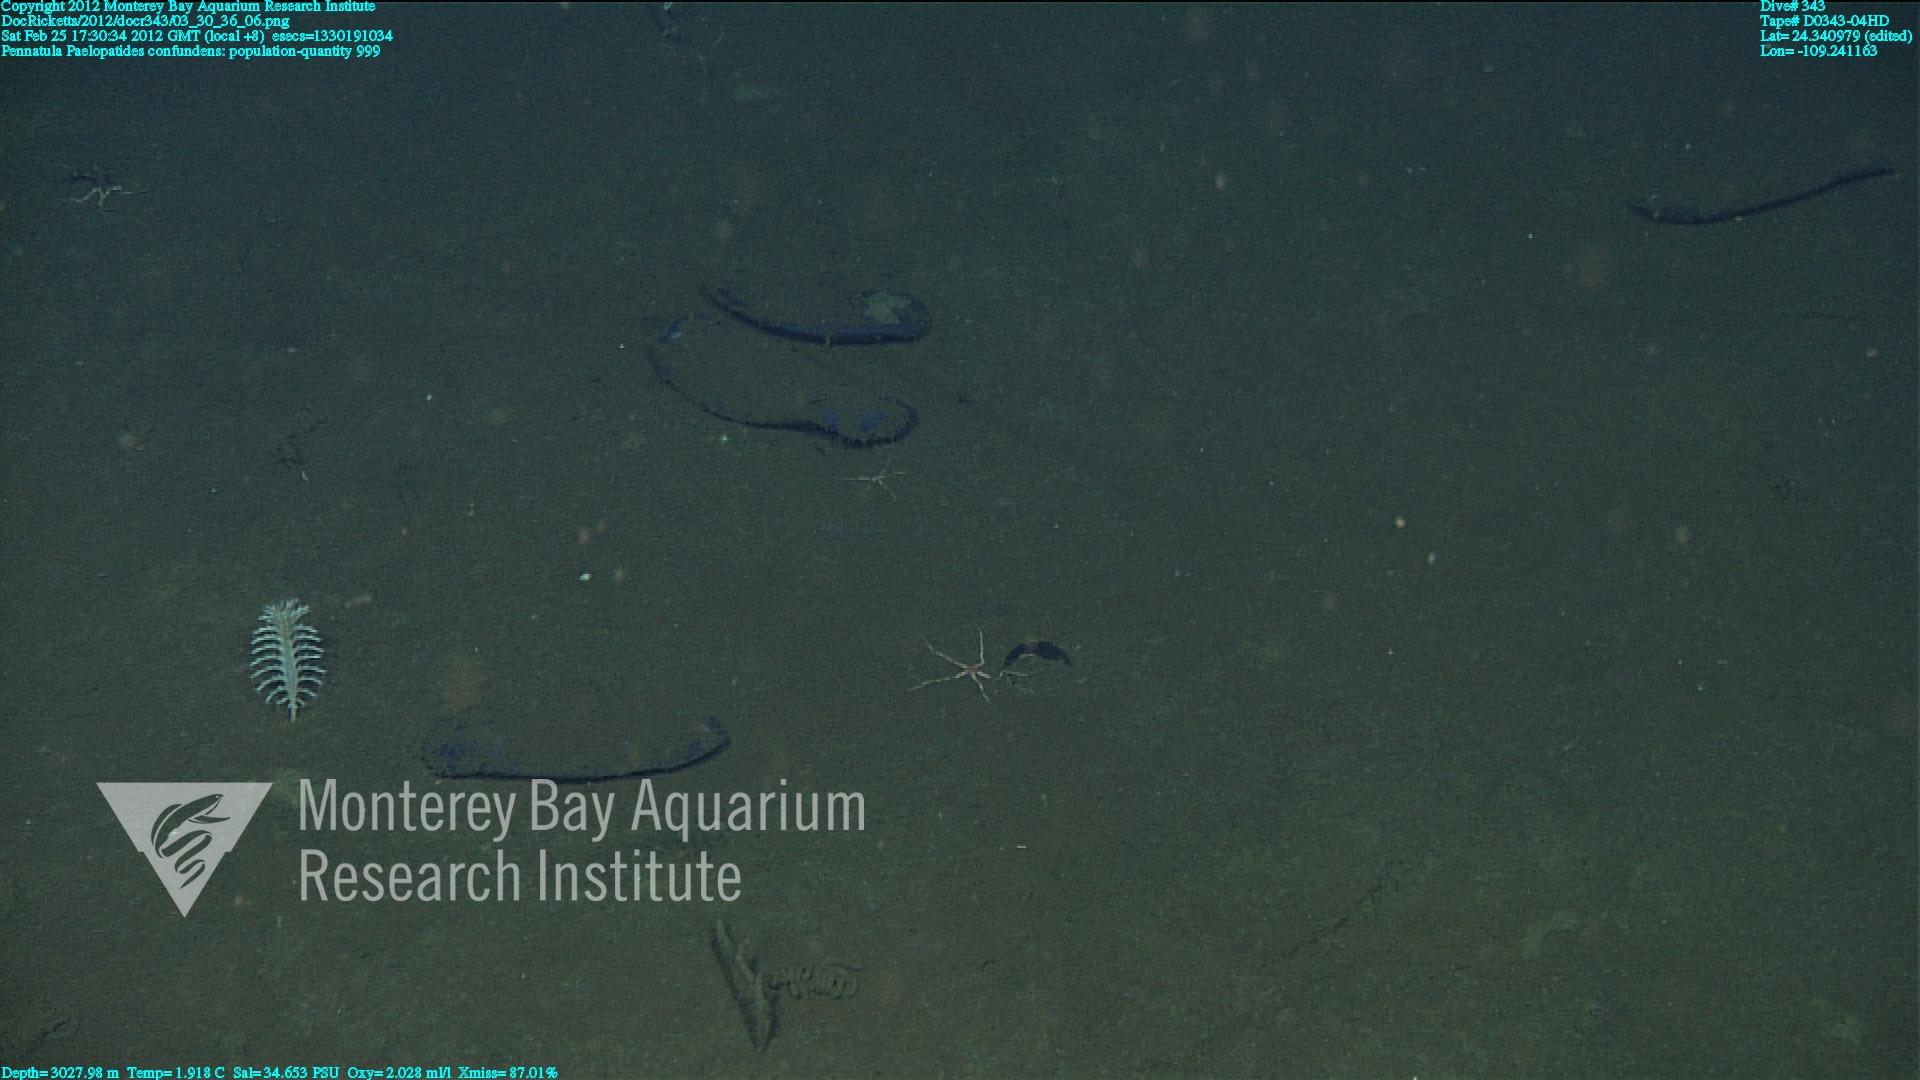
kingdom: Animalia
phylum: Cnidaria
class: Anthozoa
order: Scleralcyonacea
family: Pennatulidae
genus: Pennatula
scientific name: Pennatula
